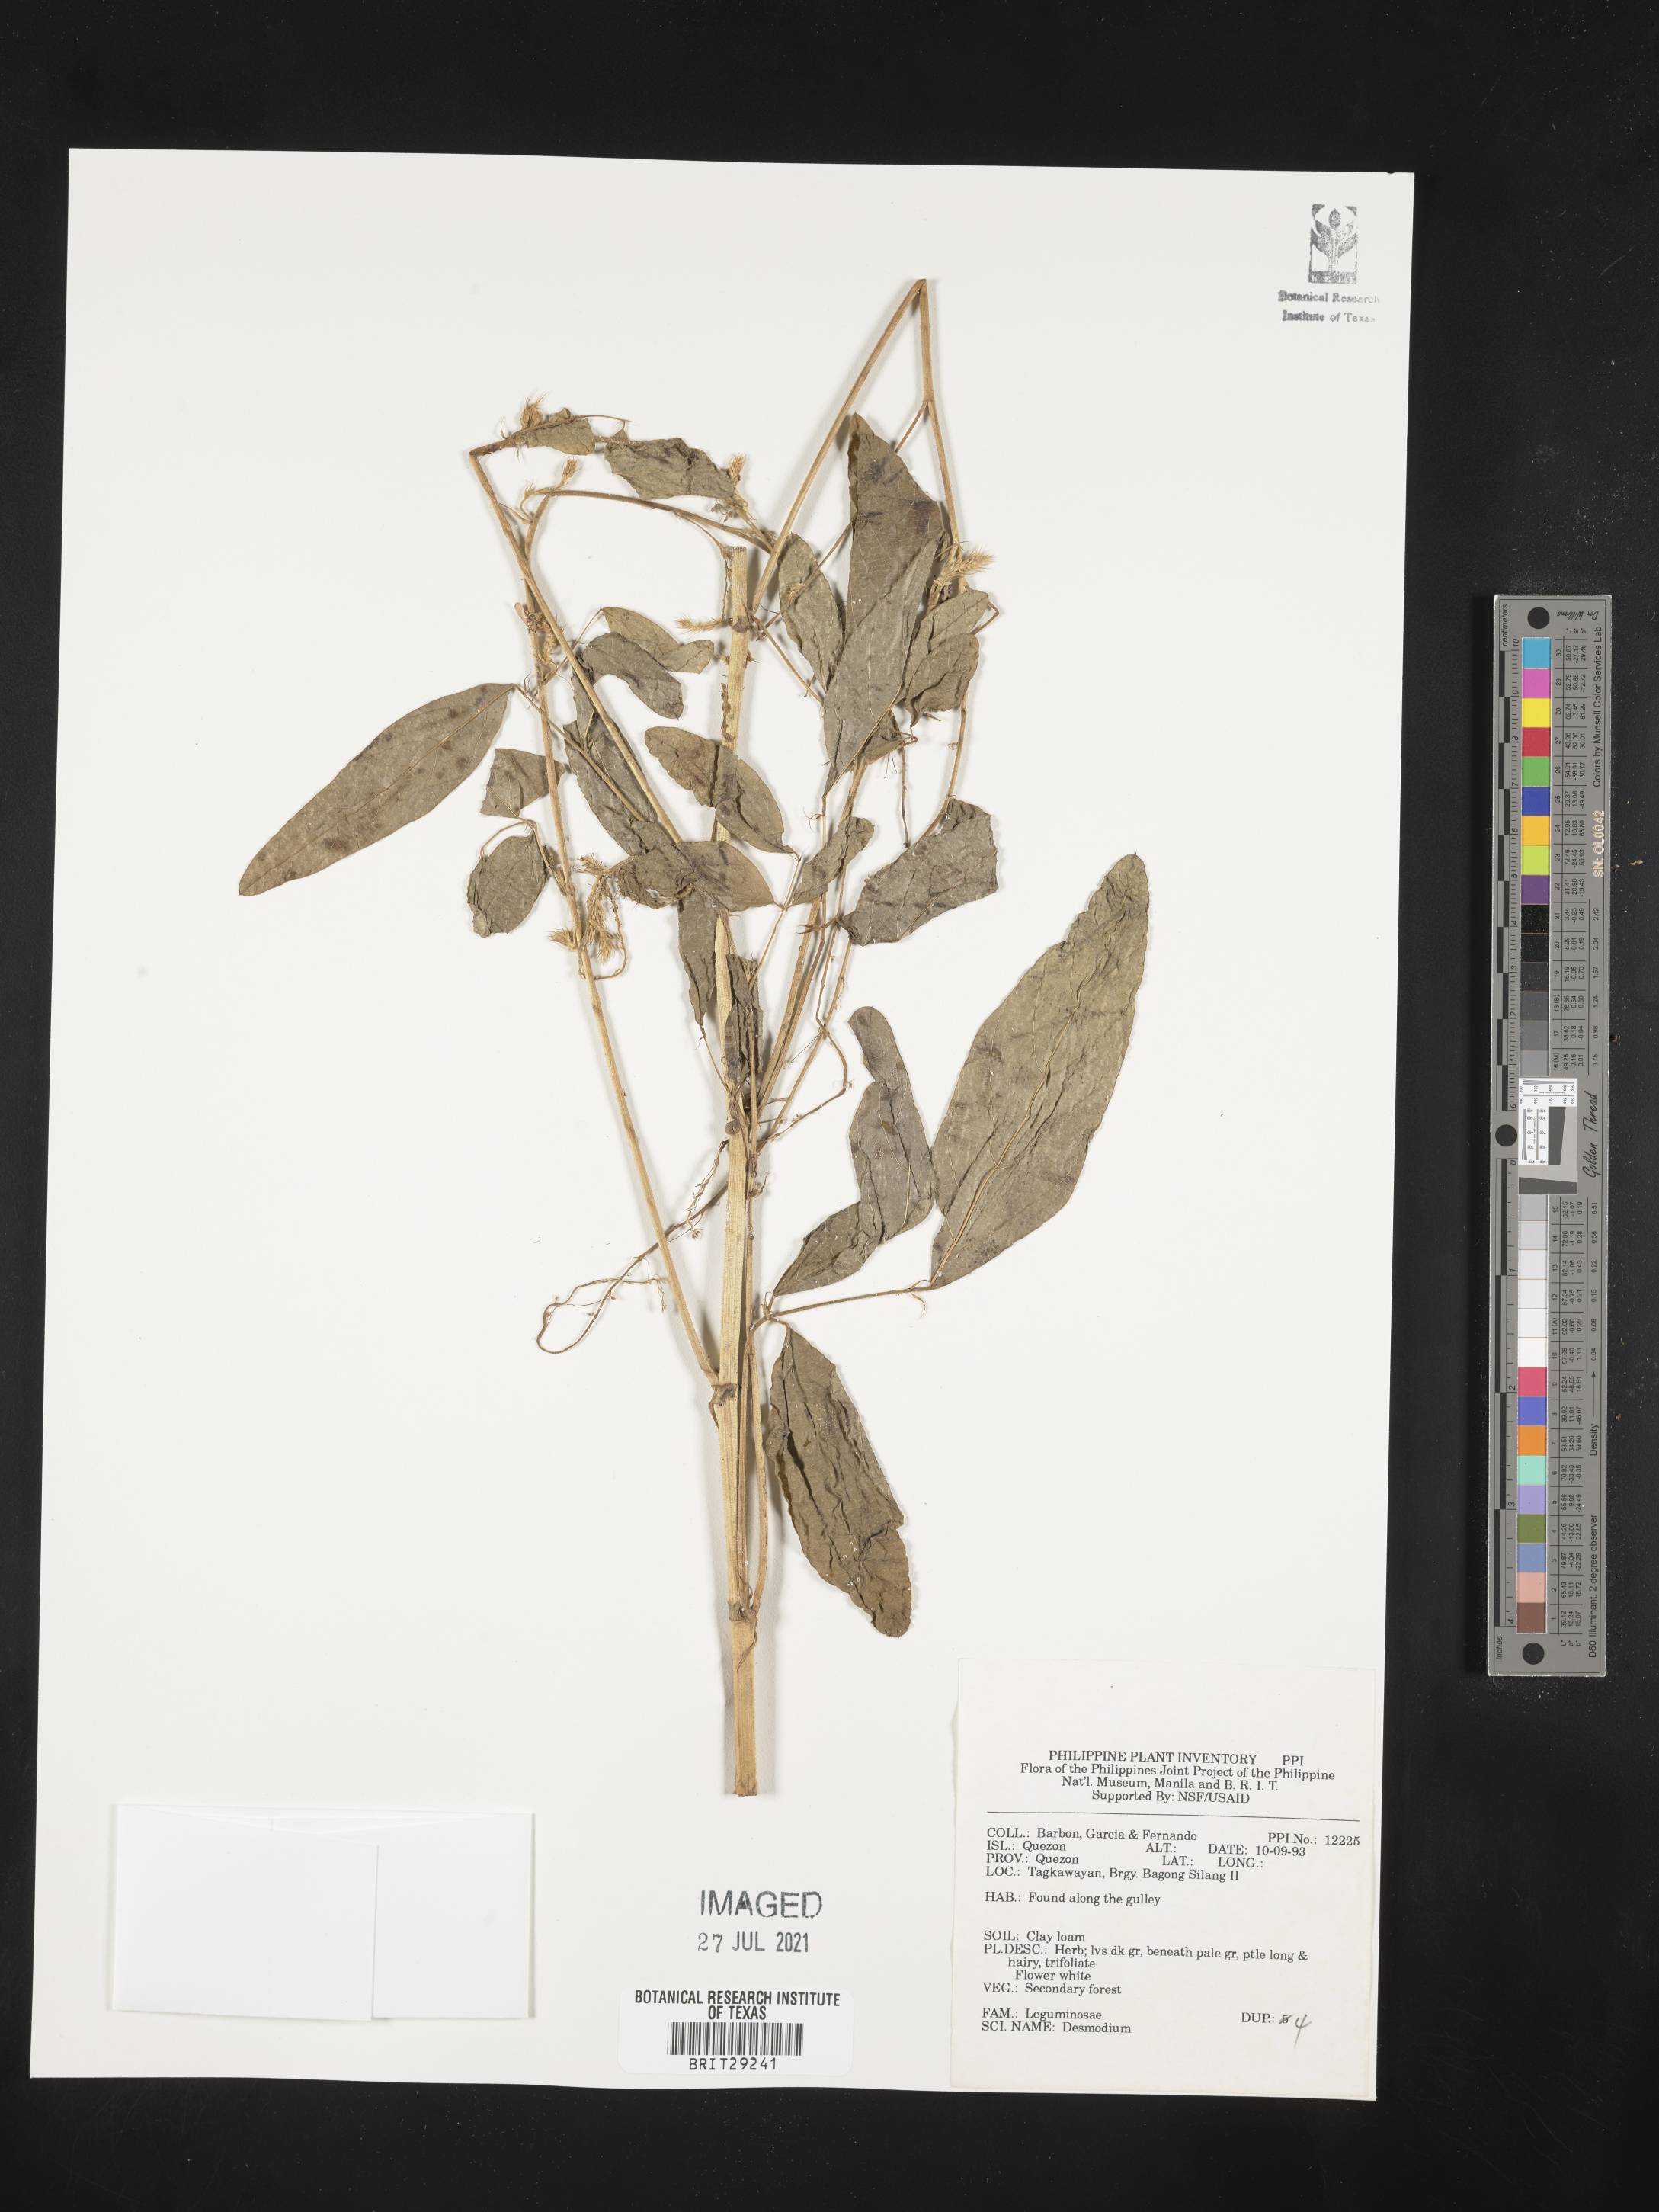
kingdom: Plantae
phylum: Tracheophyta
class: Magnoliopsida
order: Fabales
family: Fabaceae
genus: Desmodium
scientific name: Desmodium
